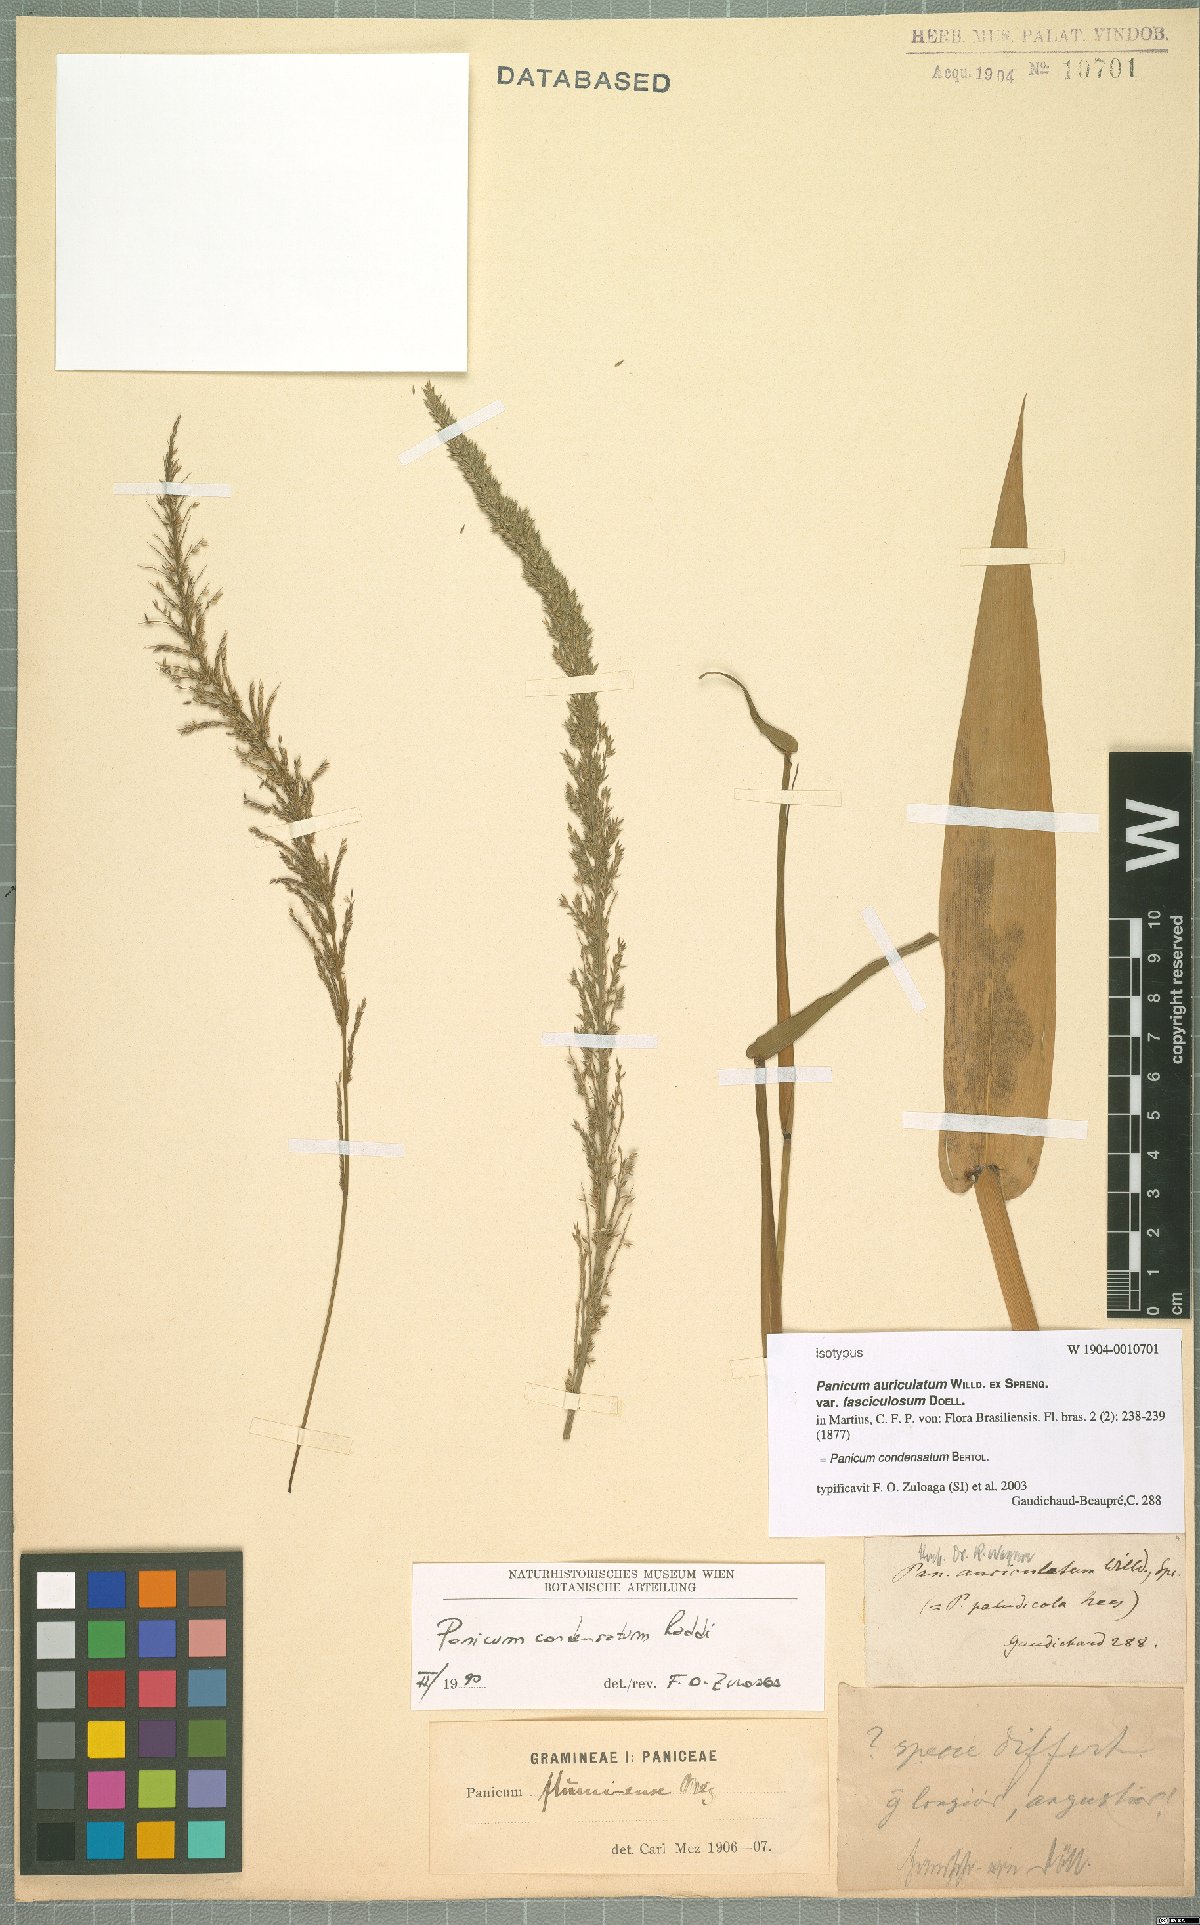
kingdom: Plantae
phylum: Tracheophyta
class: Liliopsida
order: Poales
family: Poaceae
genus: Hymenachne
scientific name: Hymenachne condensata
